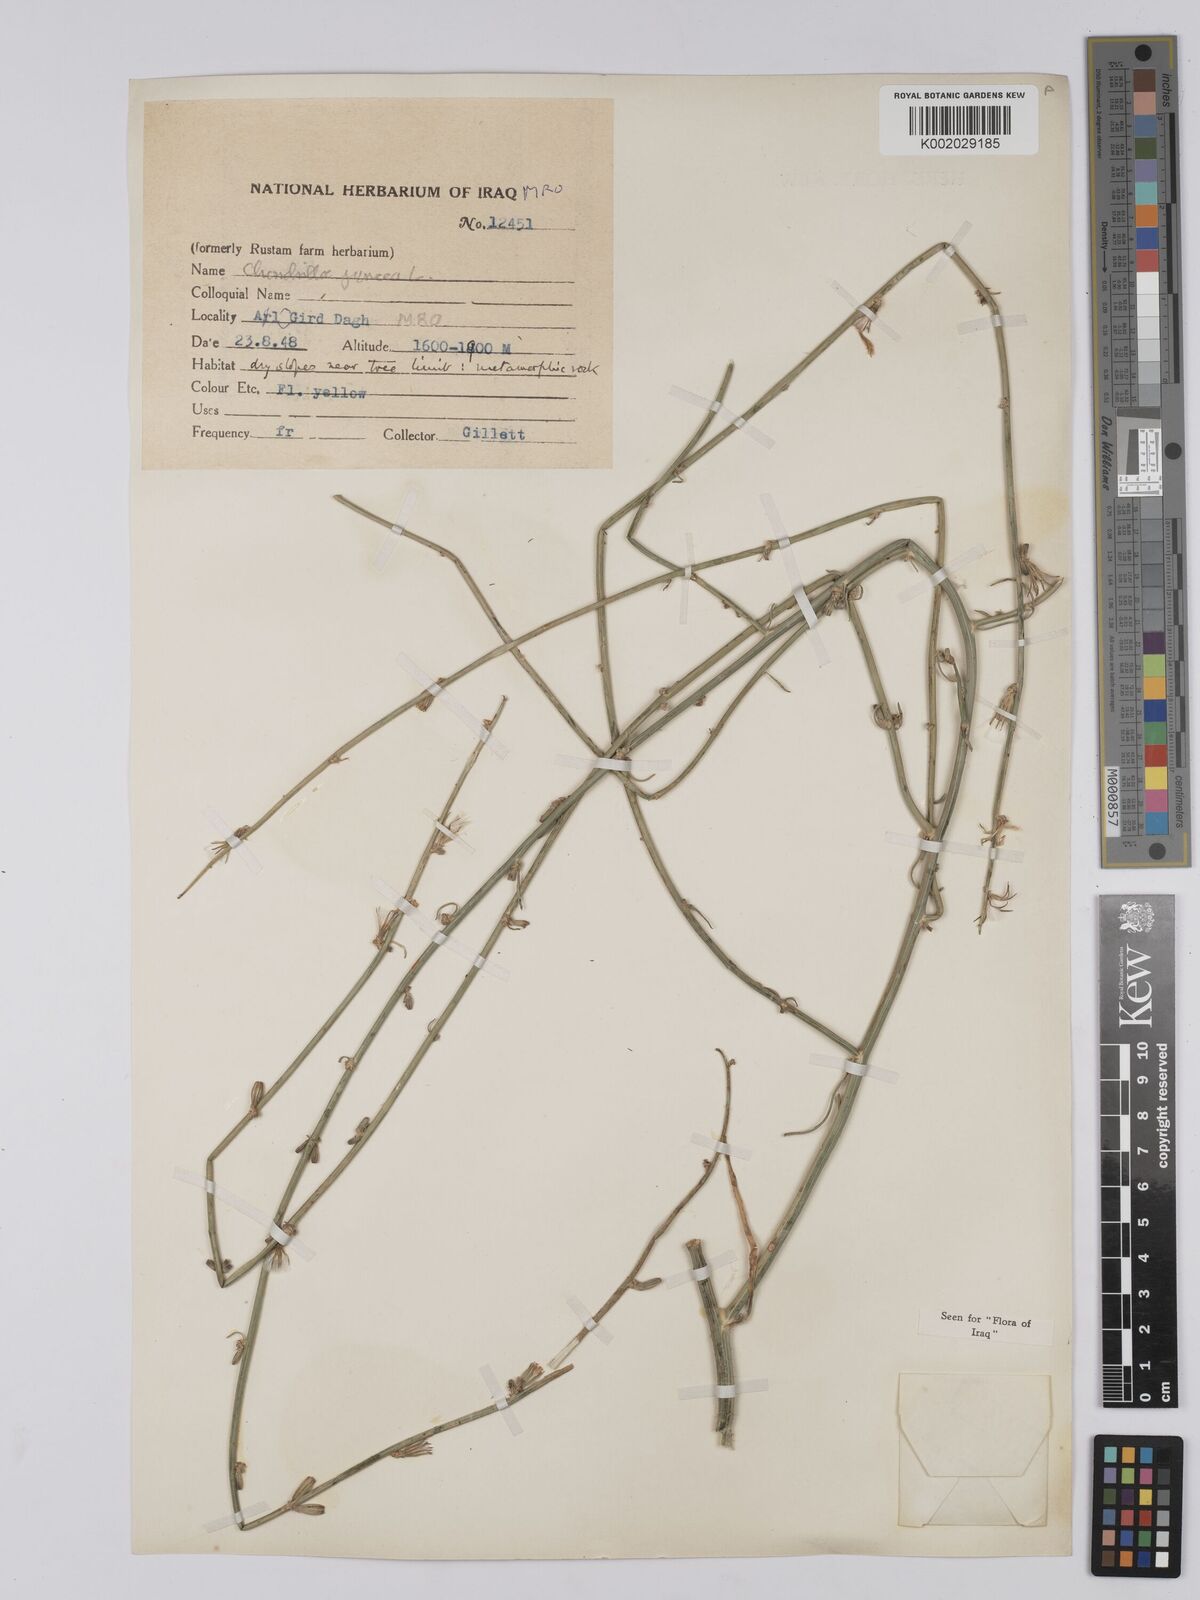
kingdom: Plantae
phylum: Tracheophyta
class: Magnoliopsida
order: Asterales
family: Asteraceae
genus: Chondrilla
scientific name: Chondrilla juncea
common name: Skeleton weed
